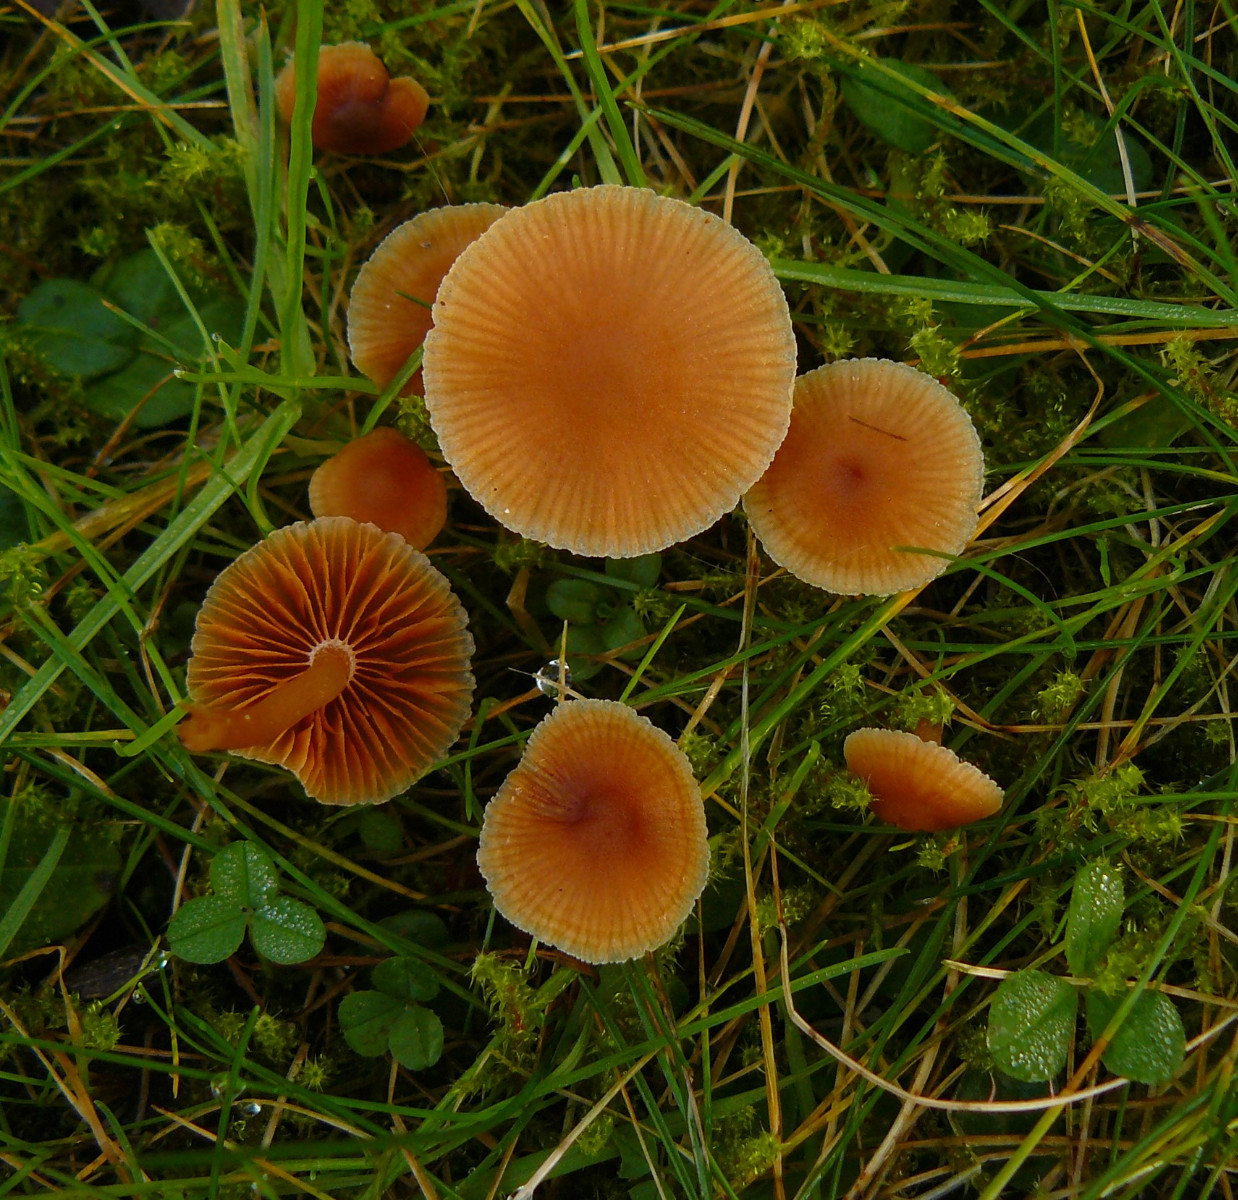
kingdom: Fungi
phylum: Basidiomycota
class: Agaricomycetes
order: Agaricales
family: Tubariaceae
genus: Tubaria
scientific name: Tubaria furfuracea
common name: kliddet fnughat
